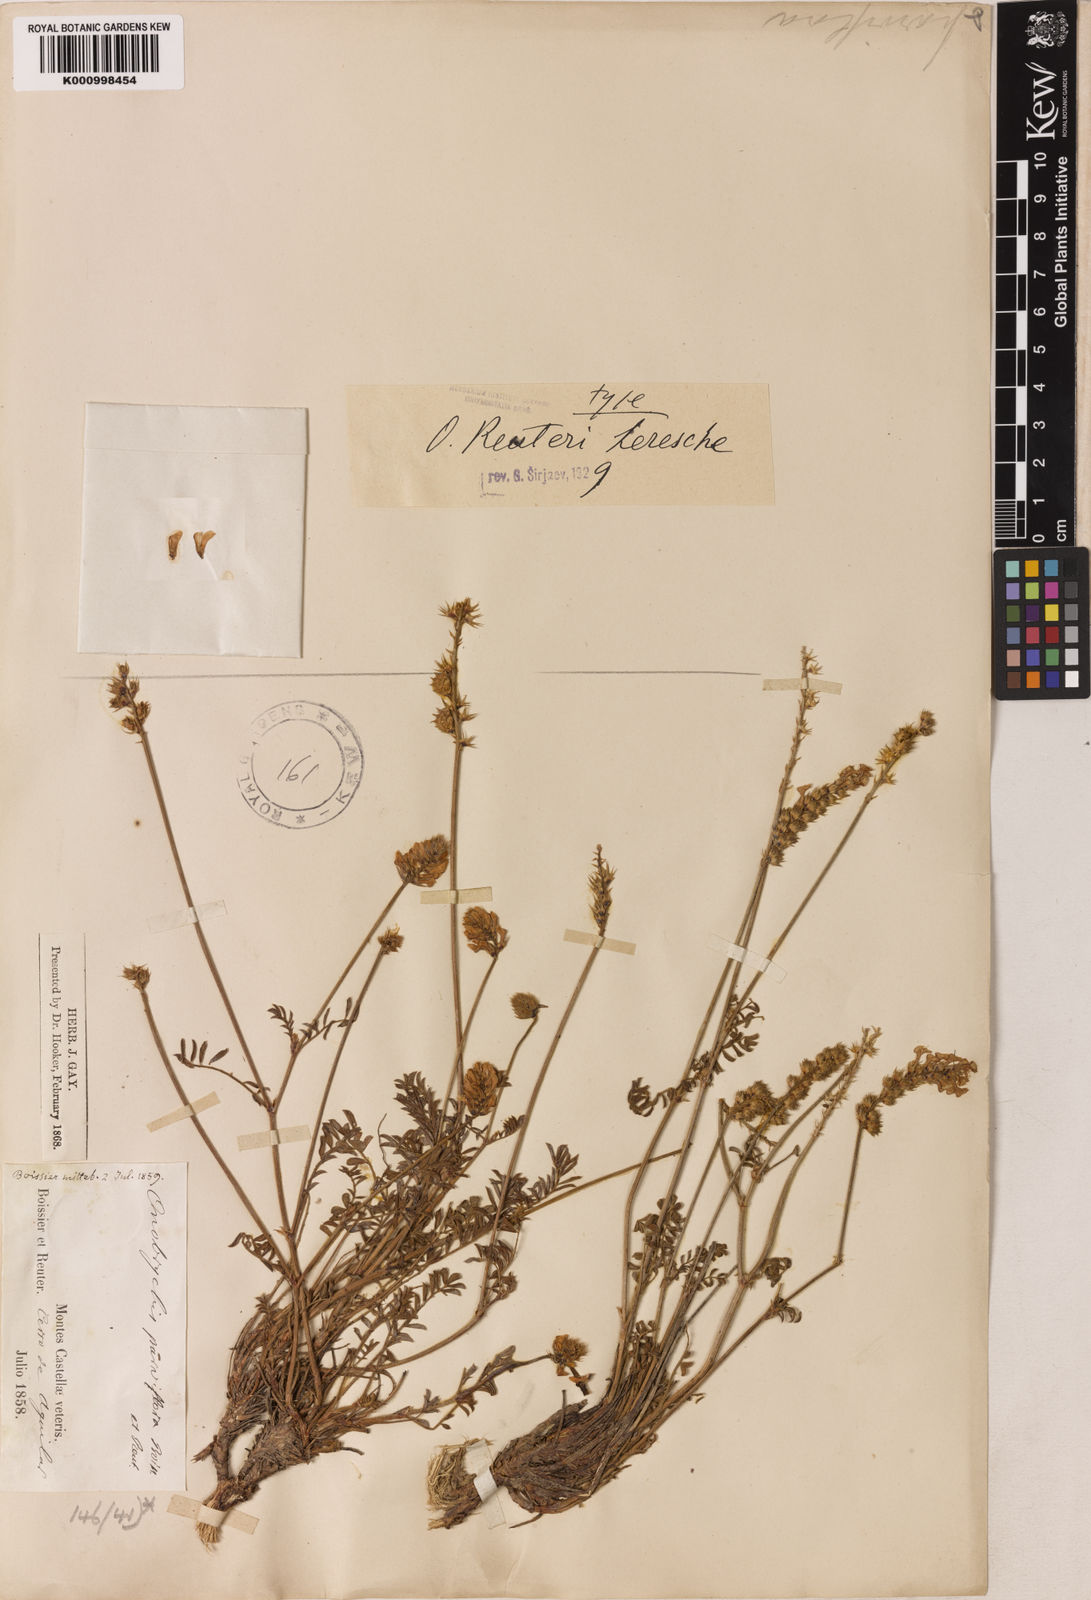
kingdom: Plantae
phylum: Tracheophyta
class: Magnoliopsida
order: Fabales
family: Fabaceae
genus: Onobrychis
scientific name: Onobrychis reuteri
